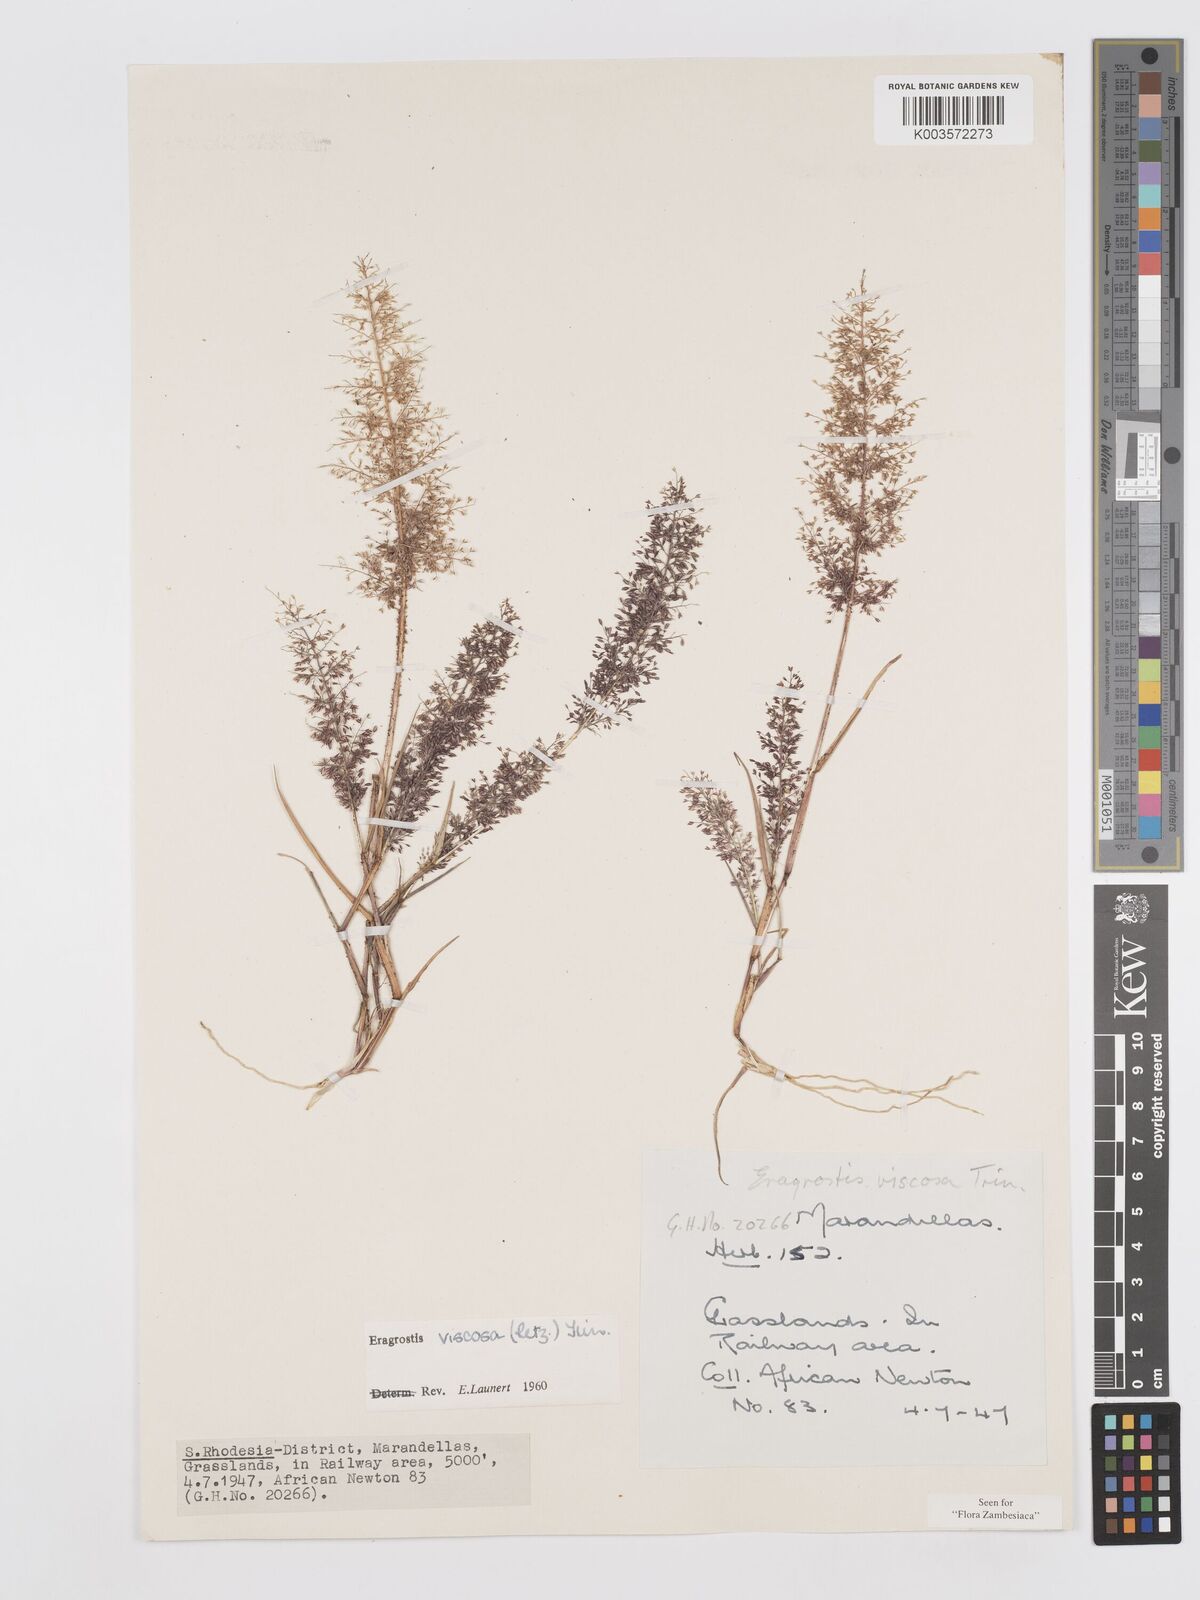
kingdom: Plantae
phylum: Tracheophyta
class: Liliopsida
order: Poales
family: Poaceae
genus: Eragrostis
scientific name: Eragrostis
